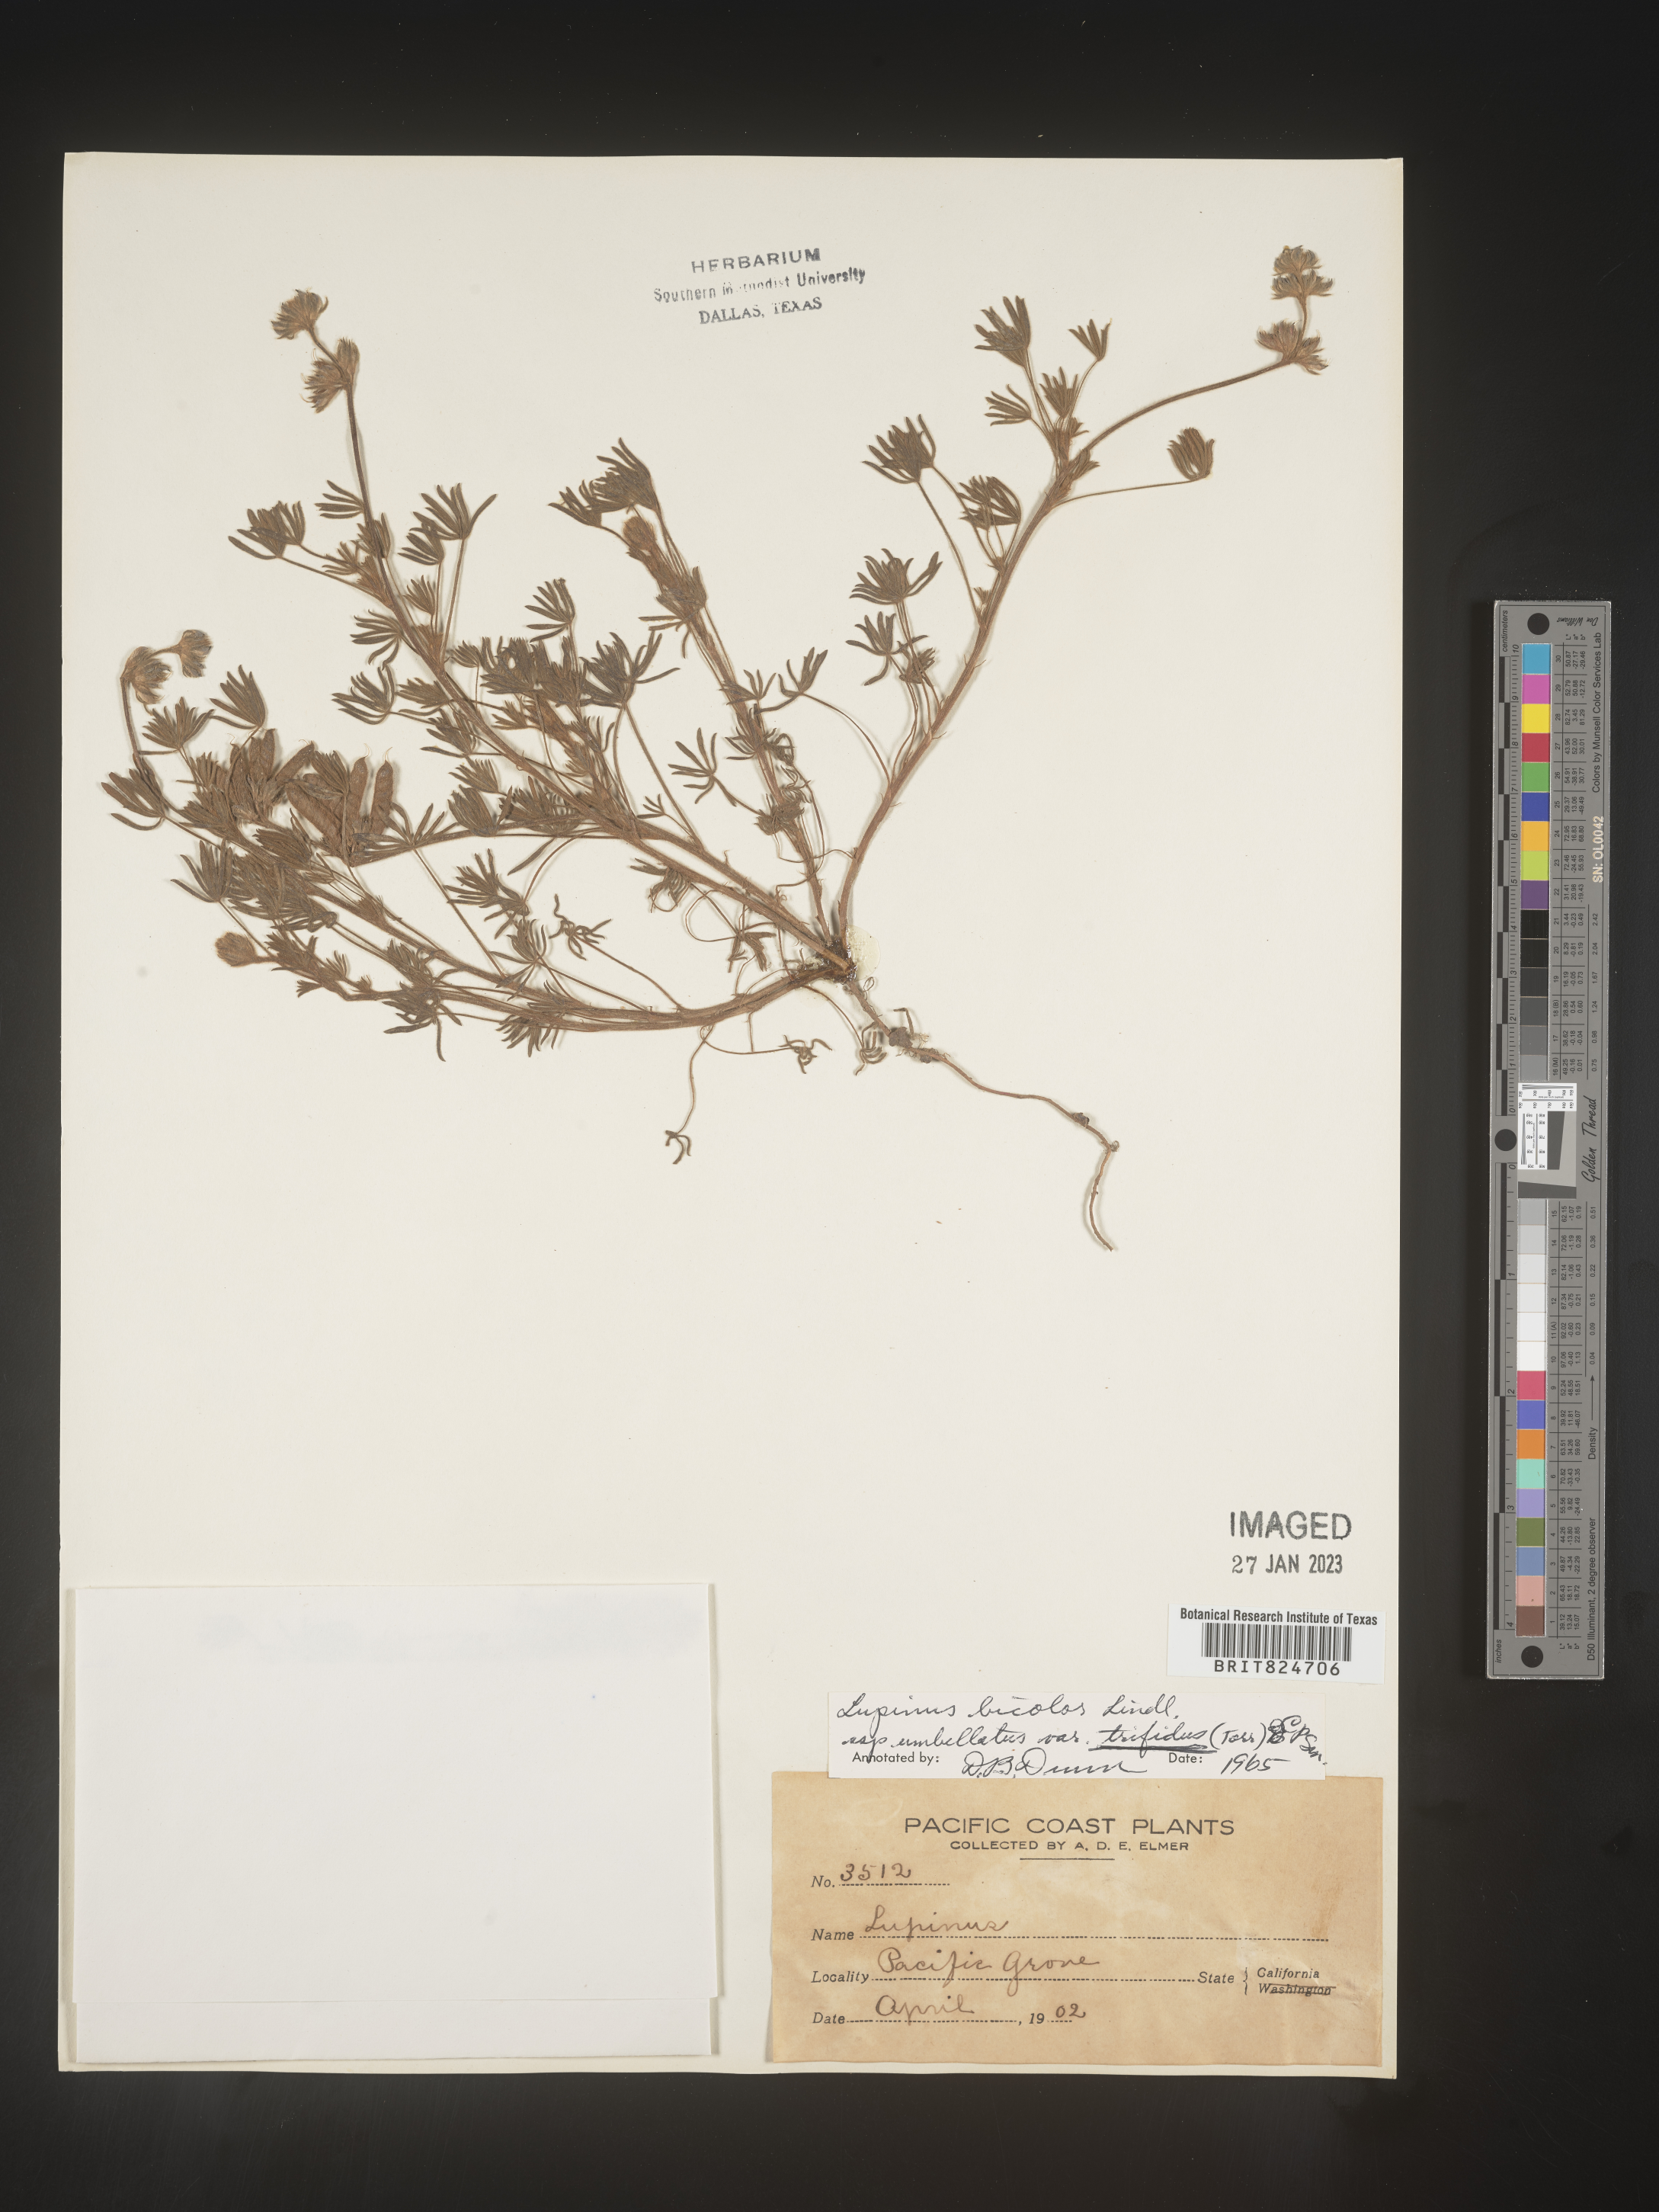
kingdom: Plantae
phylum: Tracheophyta
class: Magnoliopsida
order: Fabales
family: Fabaceae
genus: Lupinus
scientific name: Lupinus bicolor
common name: Miniature lupine
